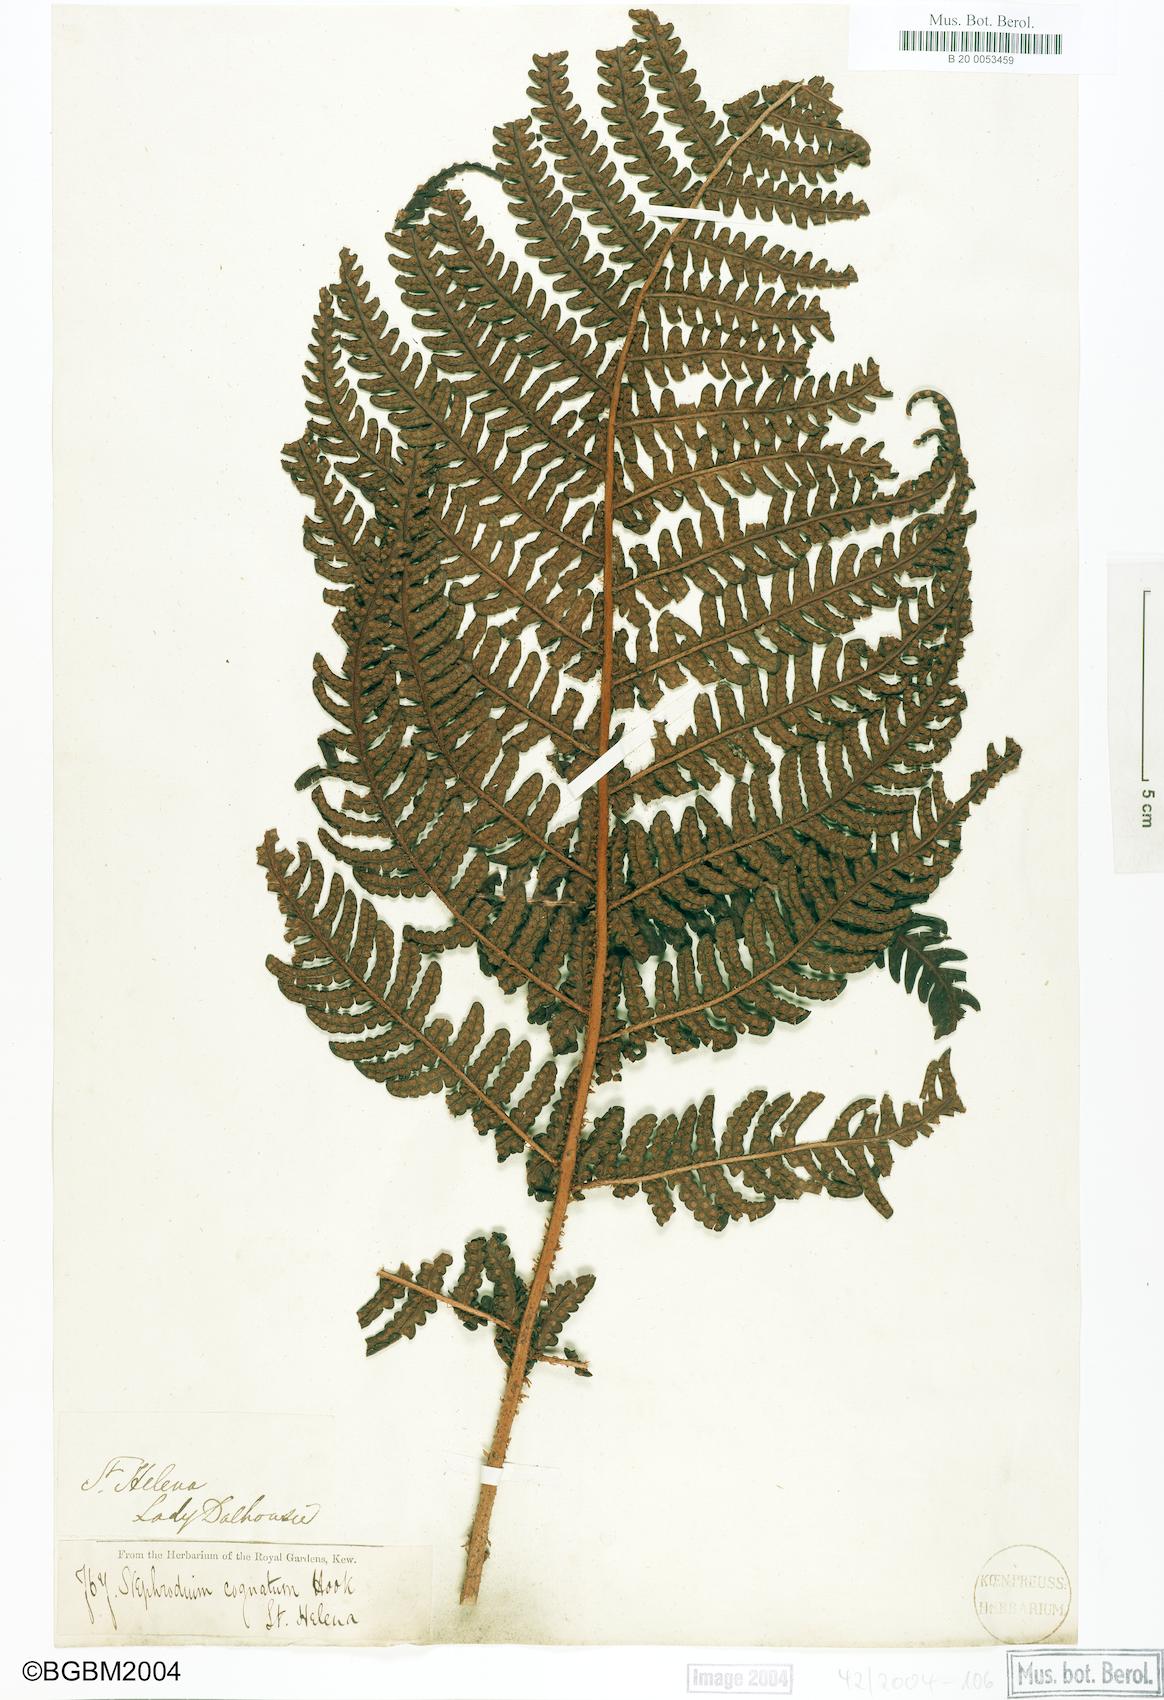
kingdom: Plantae
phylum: Tracheophyta
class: Polypodiopsida
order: Polypodiales
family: Dryopteridaceae
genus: Dryopteris
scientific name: Dryopteris cognata
